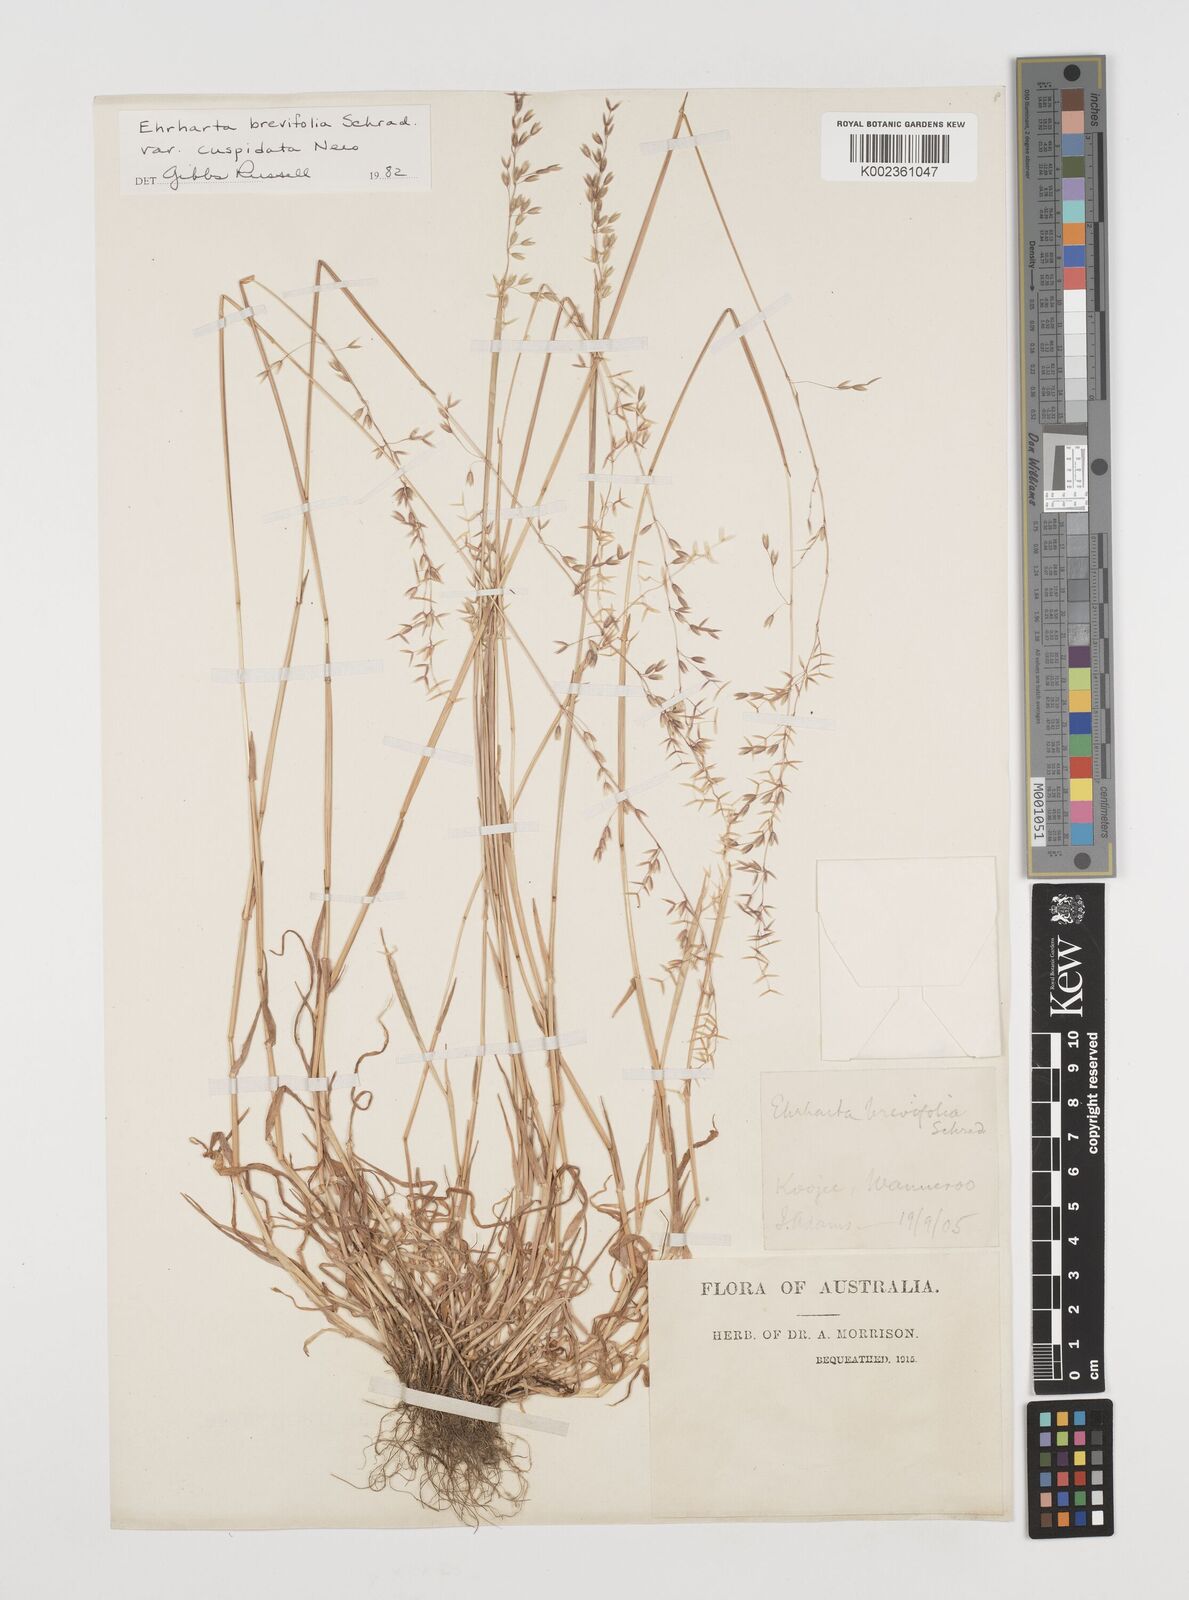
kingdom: Plantae
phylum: Tracheophyta
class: Liliopsida
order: Poales
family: Poaceae
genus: Ehrharta
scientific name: Ehrharta brevifolia
